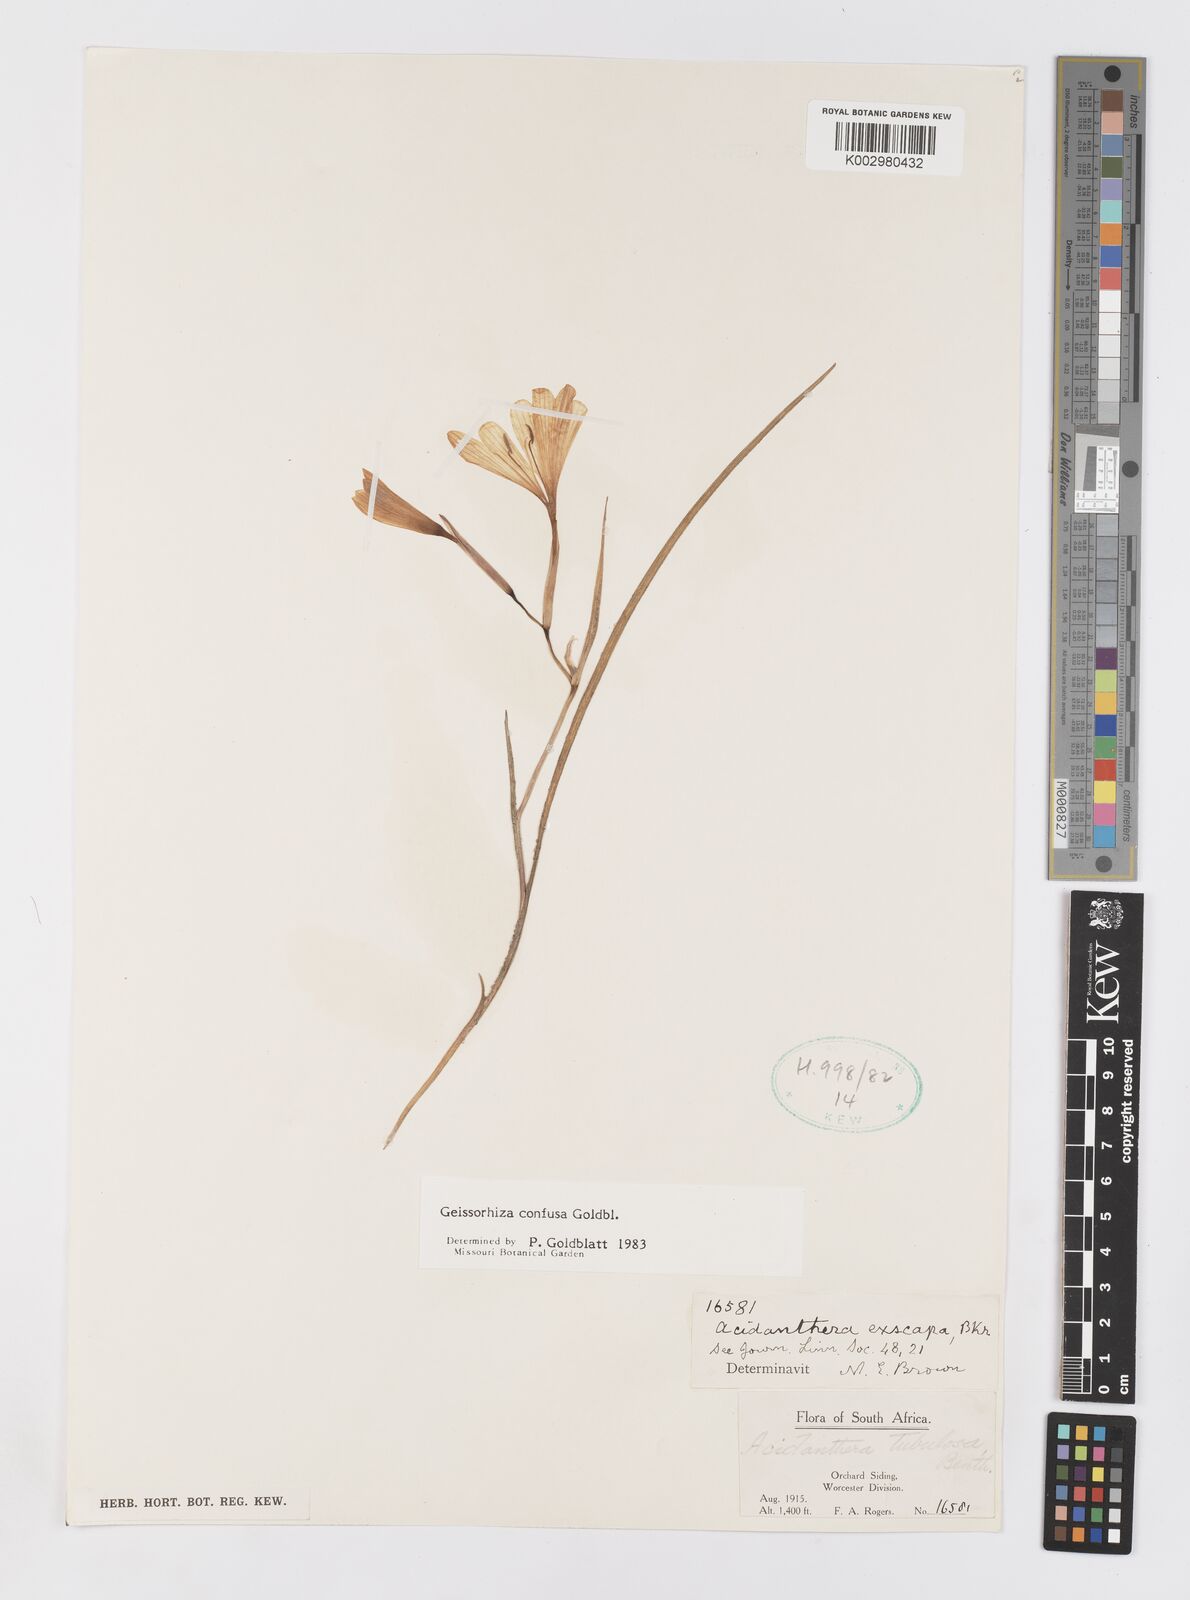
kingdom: Plantae
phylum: Tracheophyta
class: Liliopsida
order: Asparagales
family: Iridaceae
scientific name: Iridaceae
